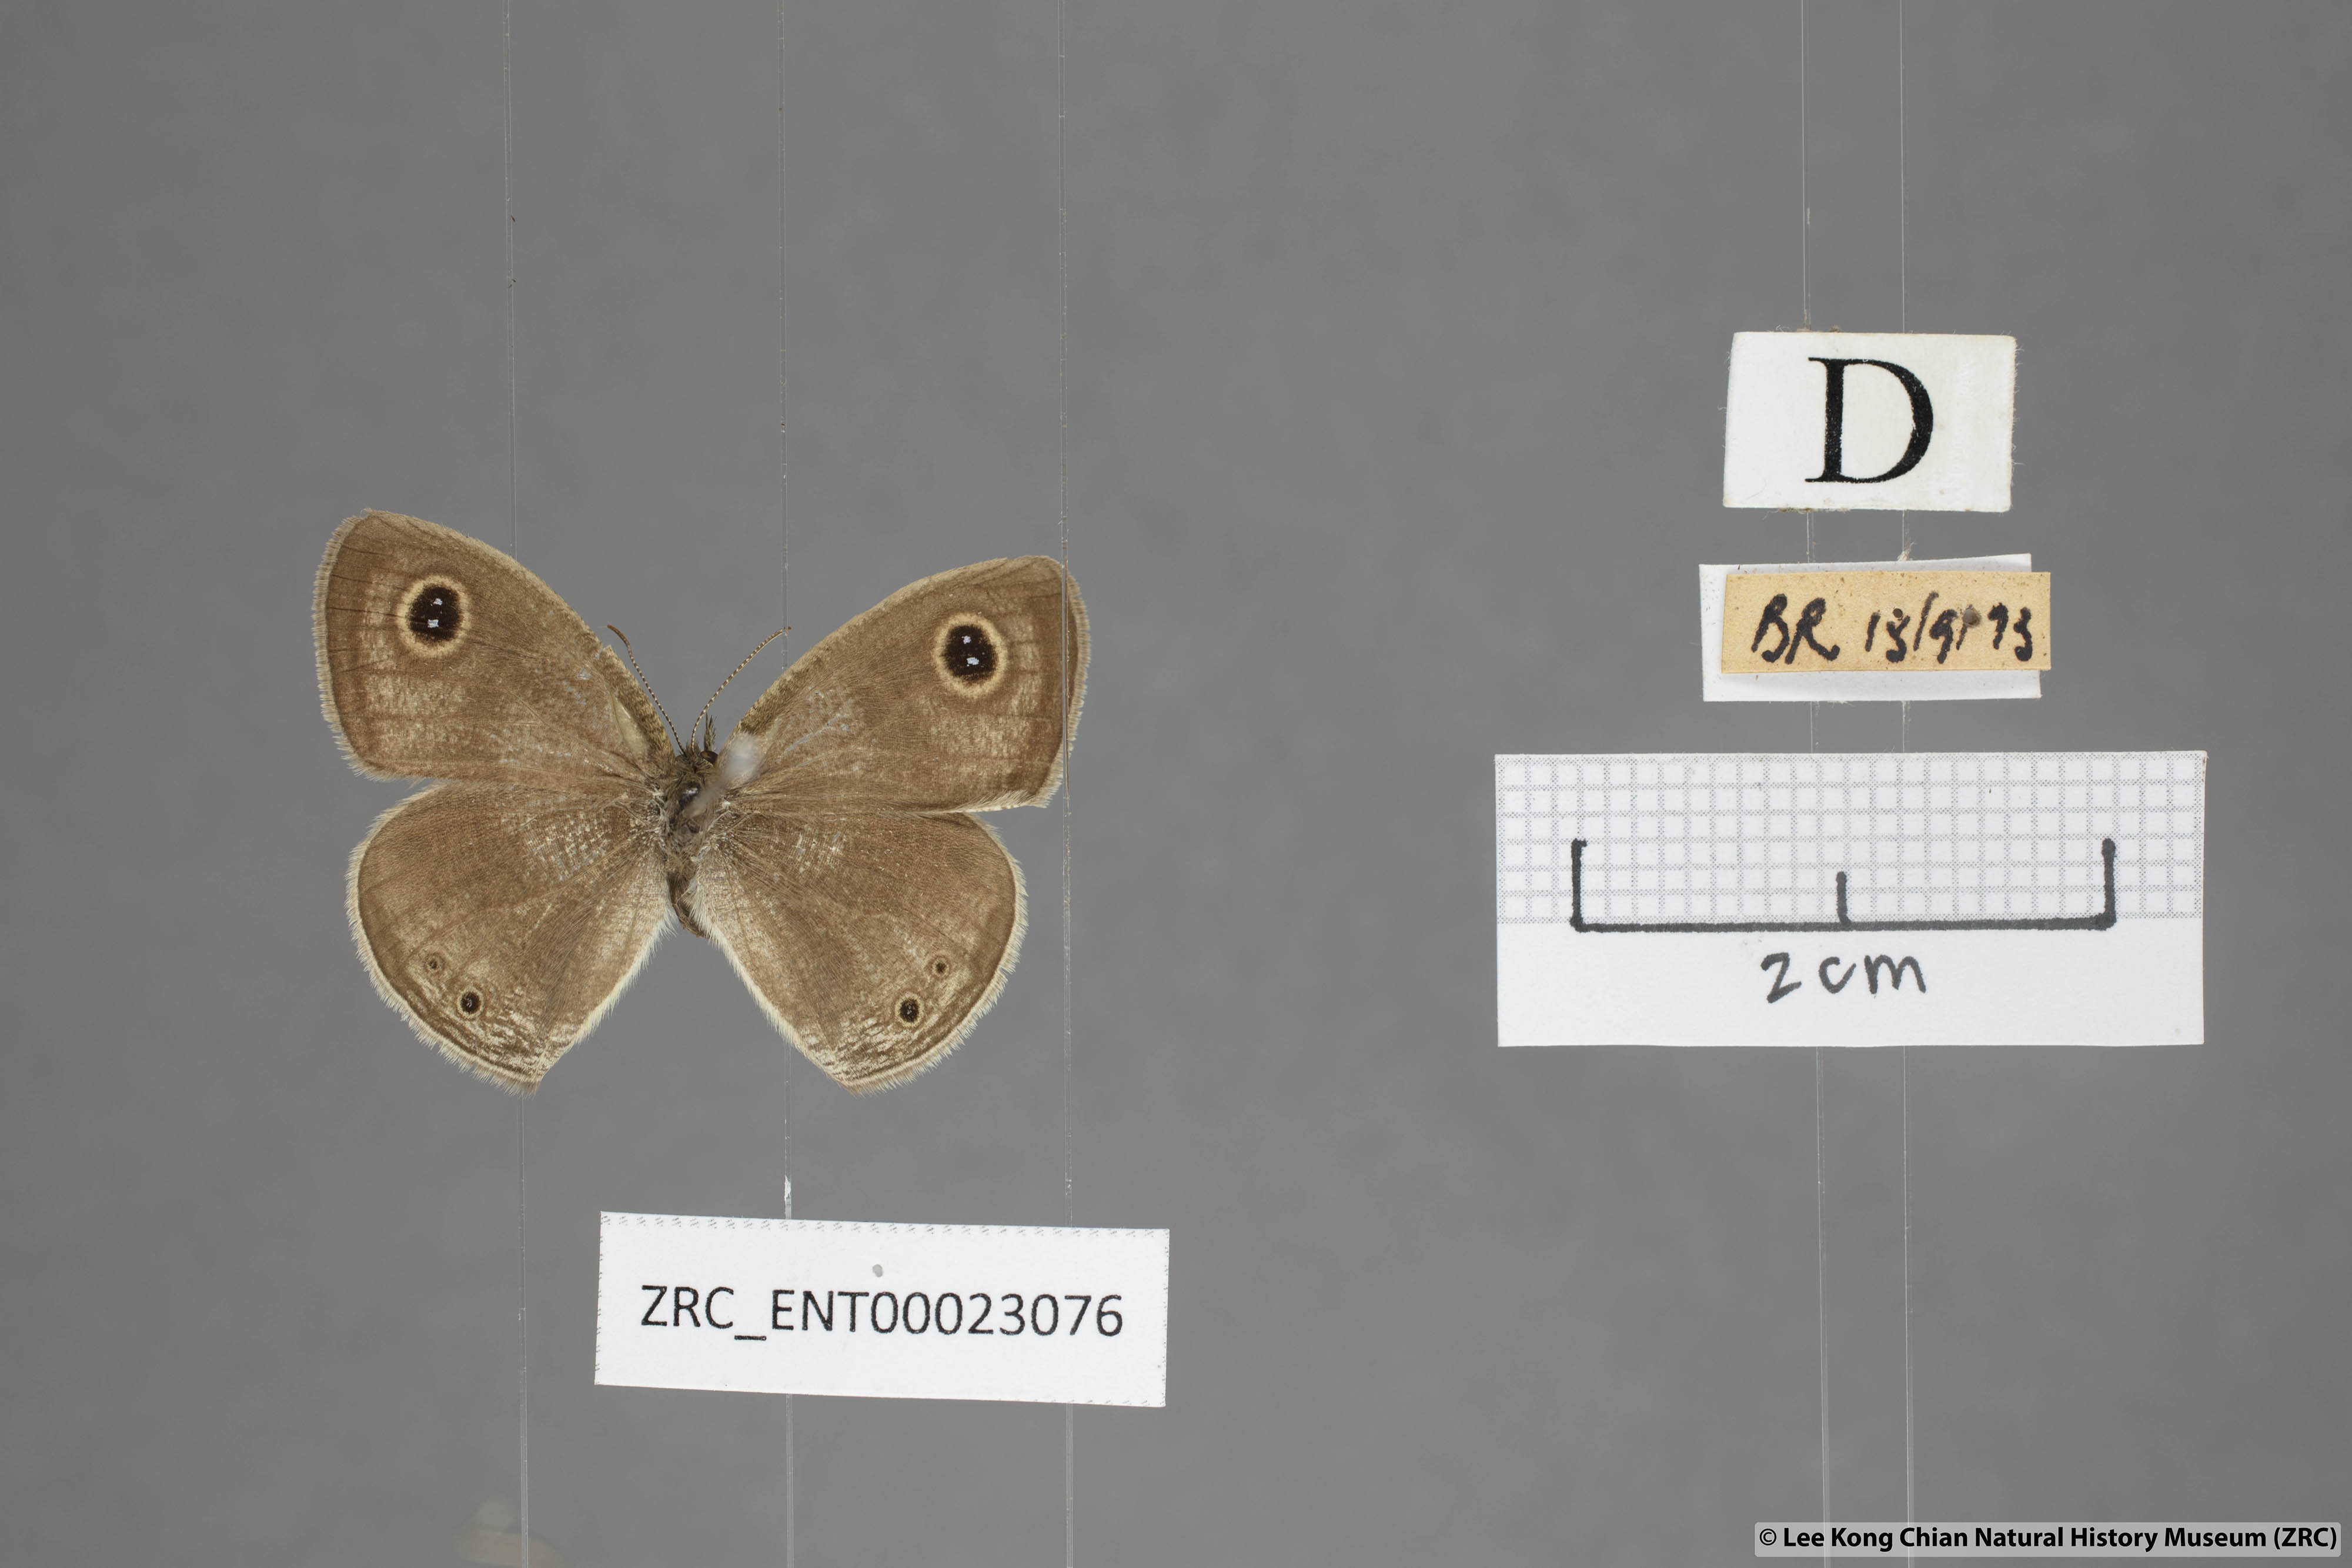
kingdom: Animalia
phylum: Arthropoda
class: Insecta
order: Lepidoptera
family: Nymphalidae
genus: Ypthima
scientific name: Ypthima huebneri
